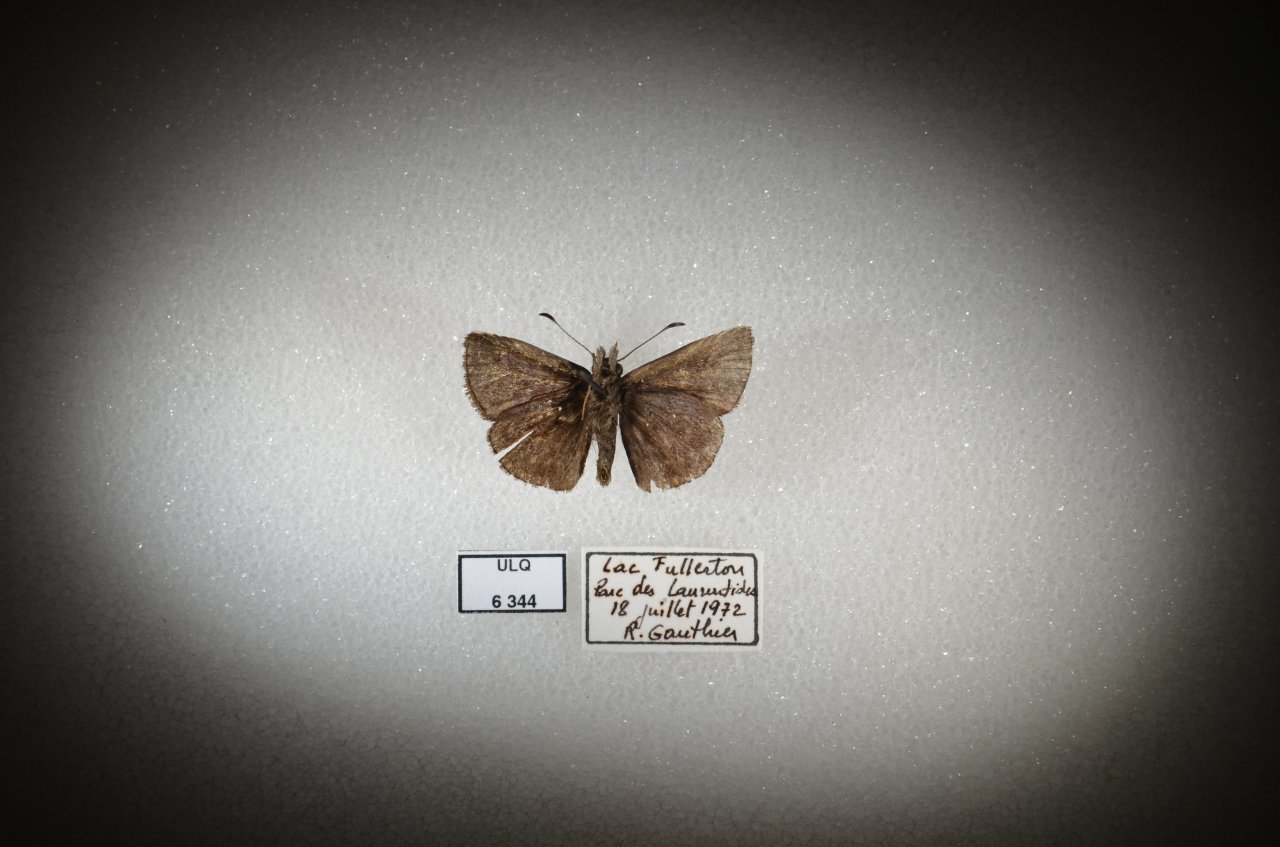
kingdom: Animalia
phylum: Arthropoda
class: Insecta
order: Lepidoptera
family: Hesperiidae
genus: Euphyes
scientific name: Euphyes vestris
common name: Dun Skipper
